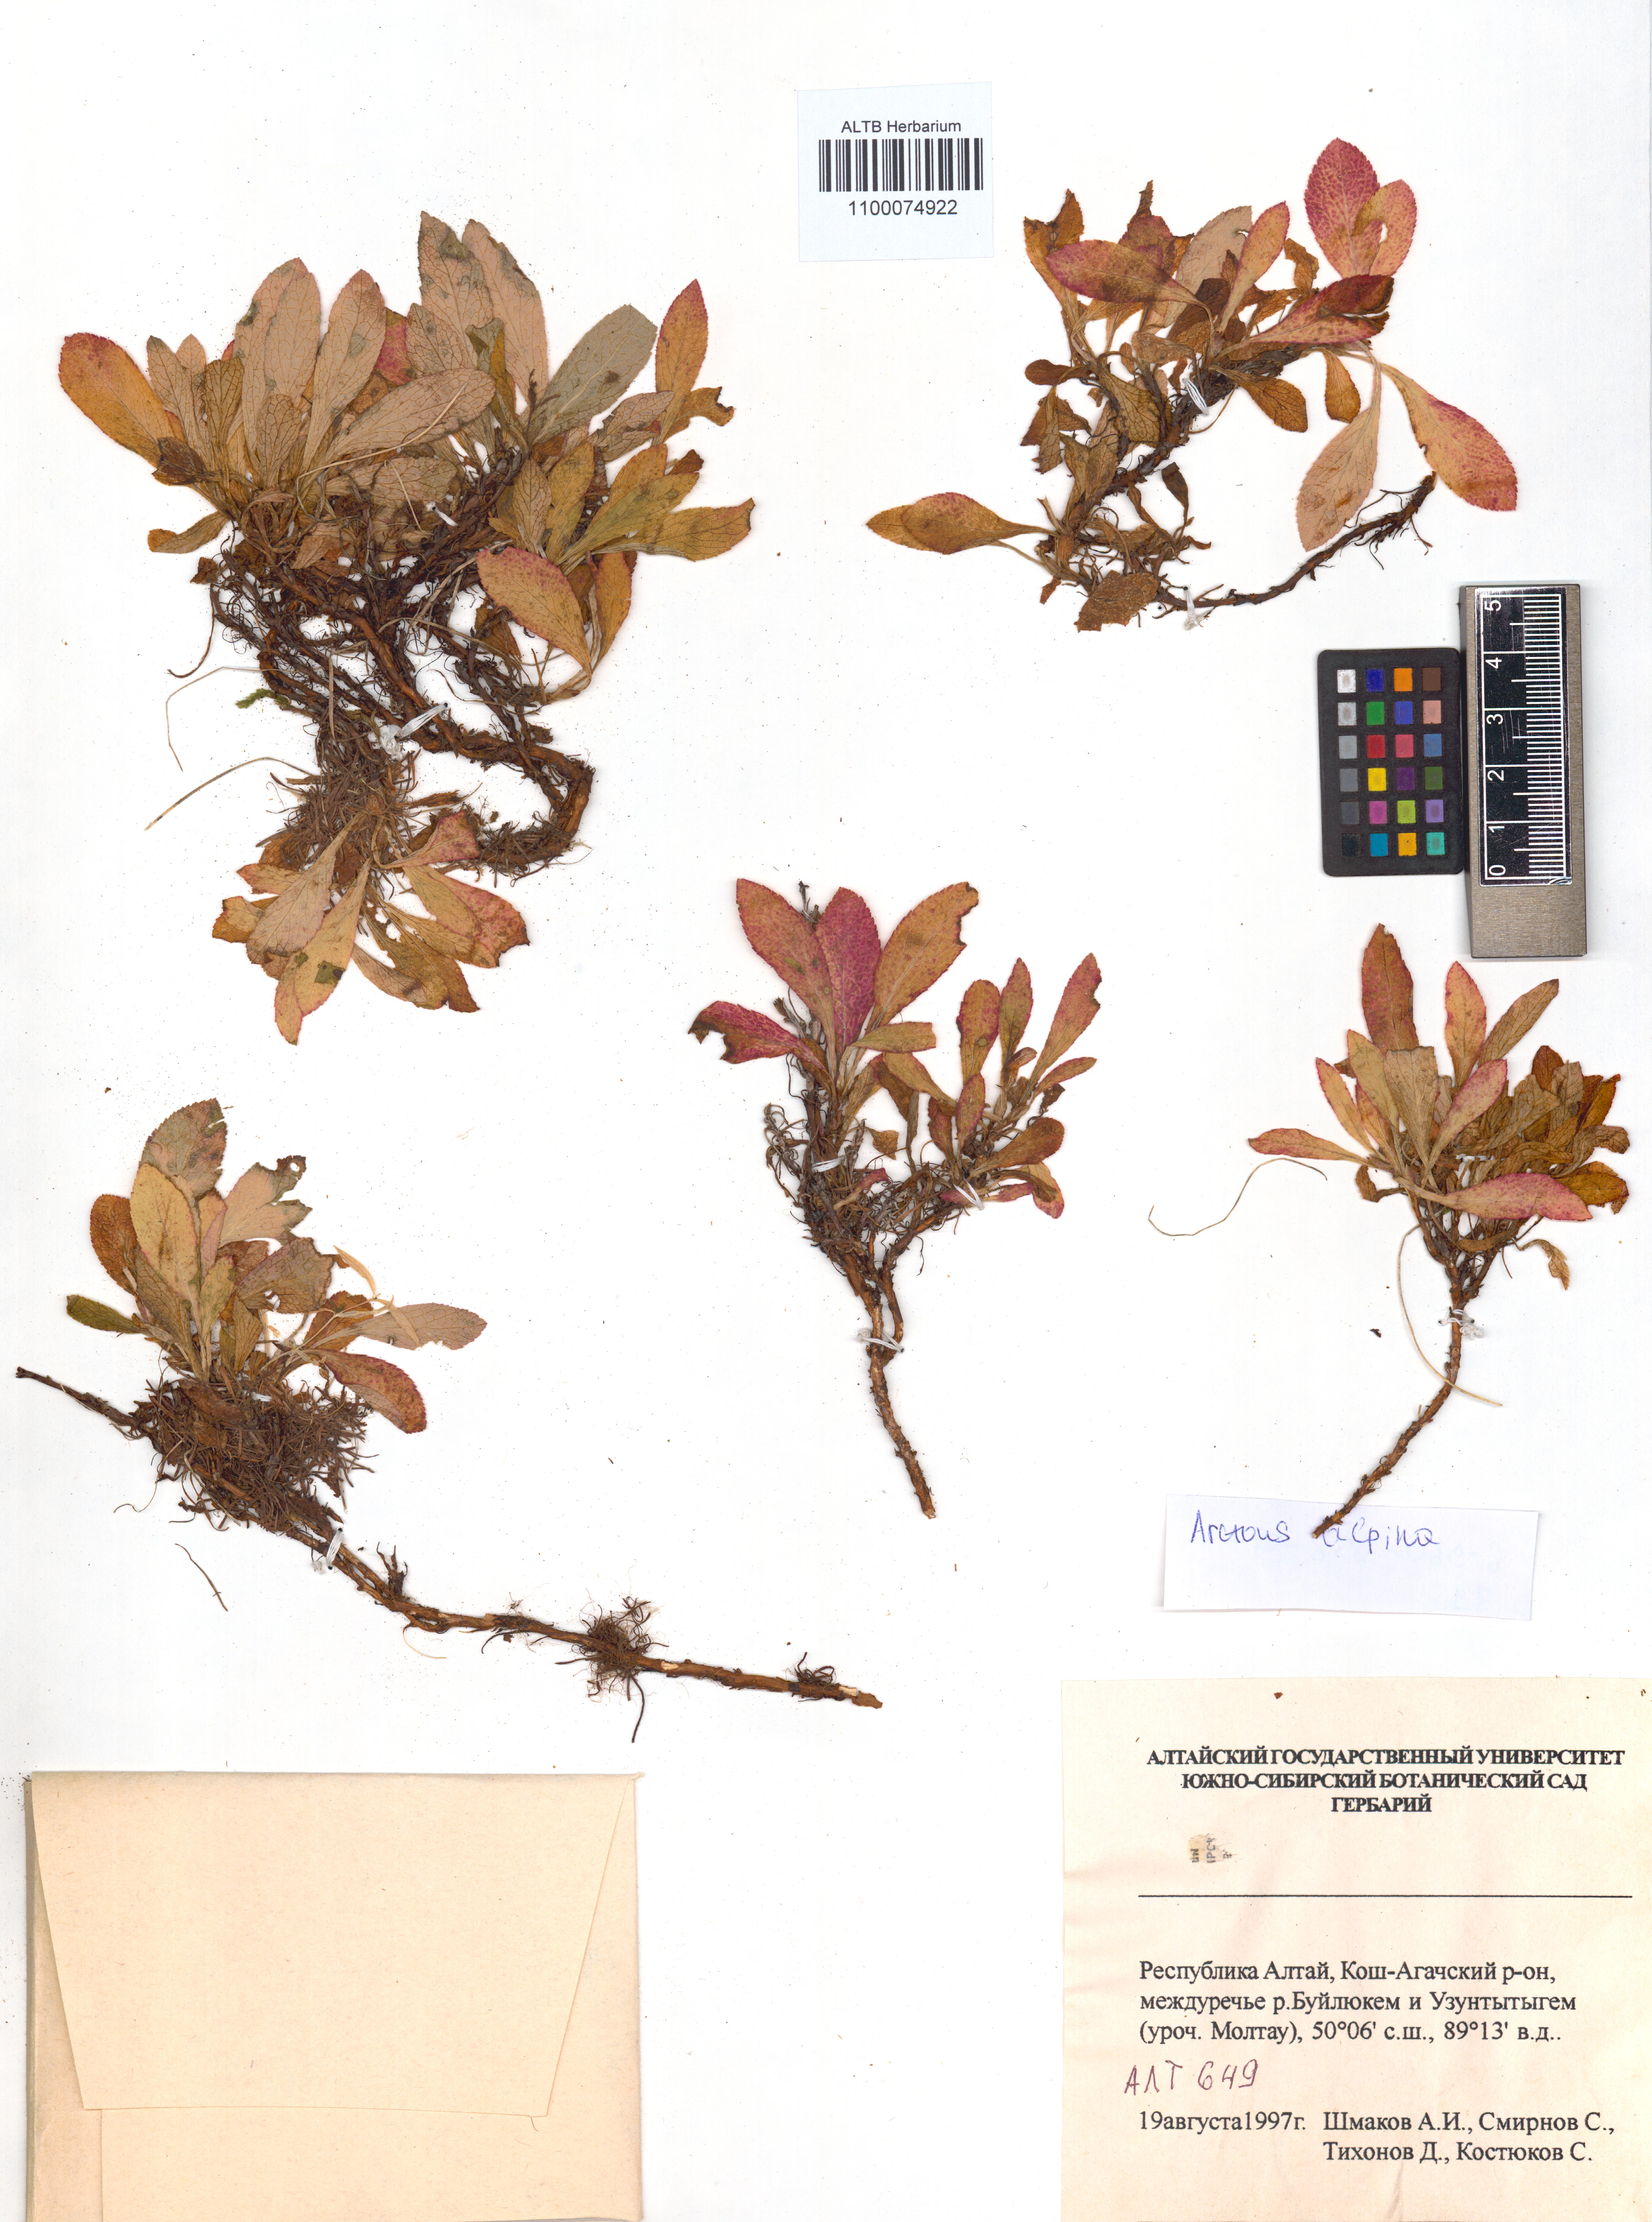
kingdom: Plantae
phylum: Tracheophyta
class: Magnoliopsida
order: Ericales
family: Ericaceae
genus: Arctostaphylos
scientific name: Arctostaphylos alpinus
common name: Alpine bearberry
